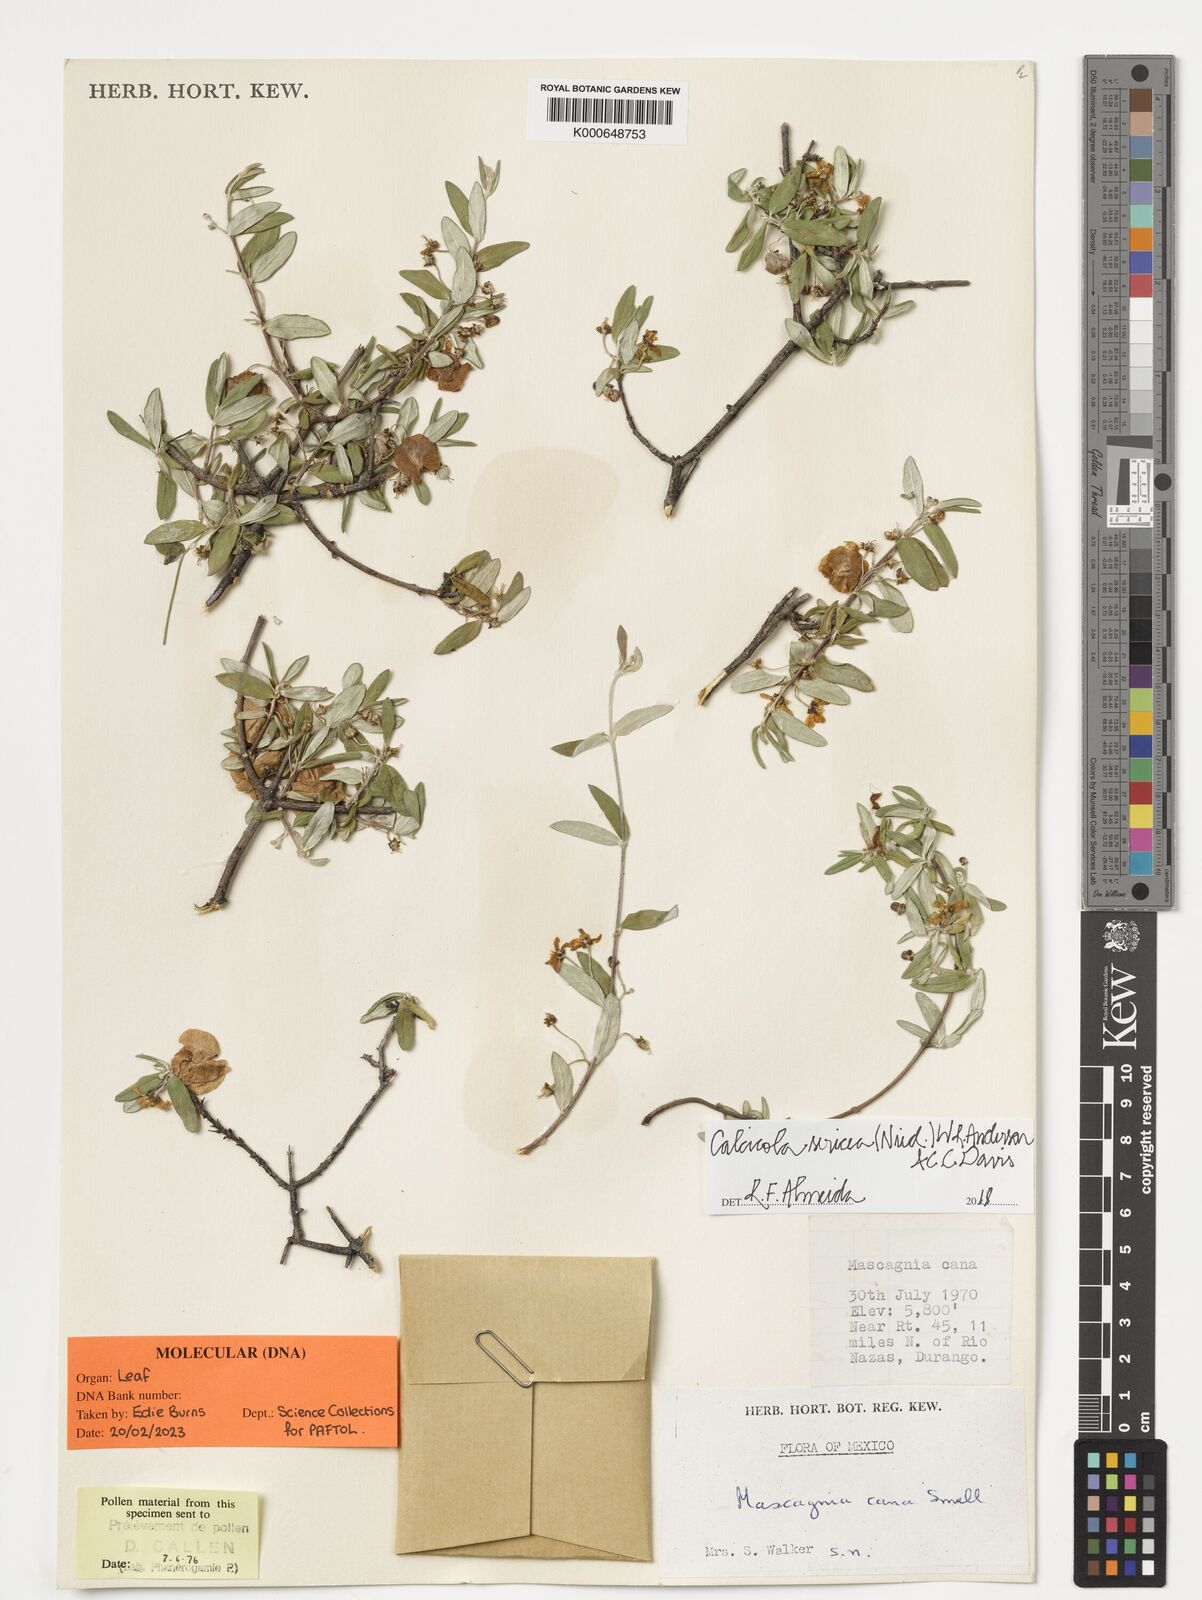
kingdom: Plantae
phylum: Tracheophyta
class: Magnoliopsida
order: Malpighiales
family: Malpighiaceae
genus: Calcicola
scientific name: Calcicola sericea
